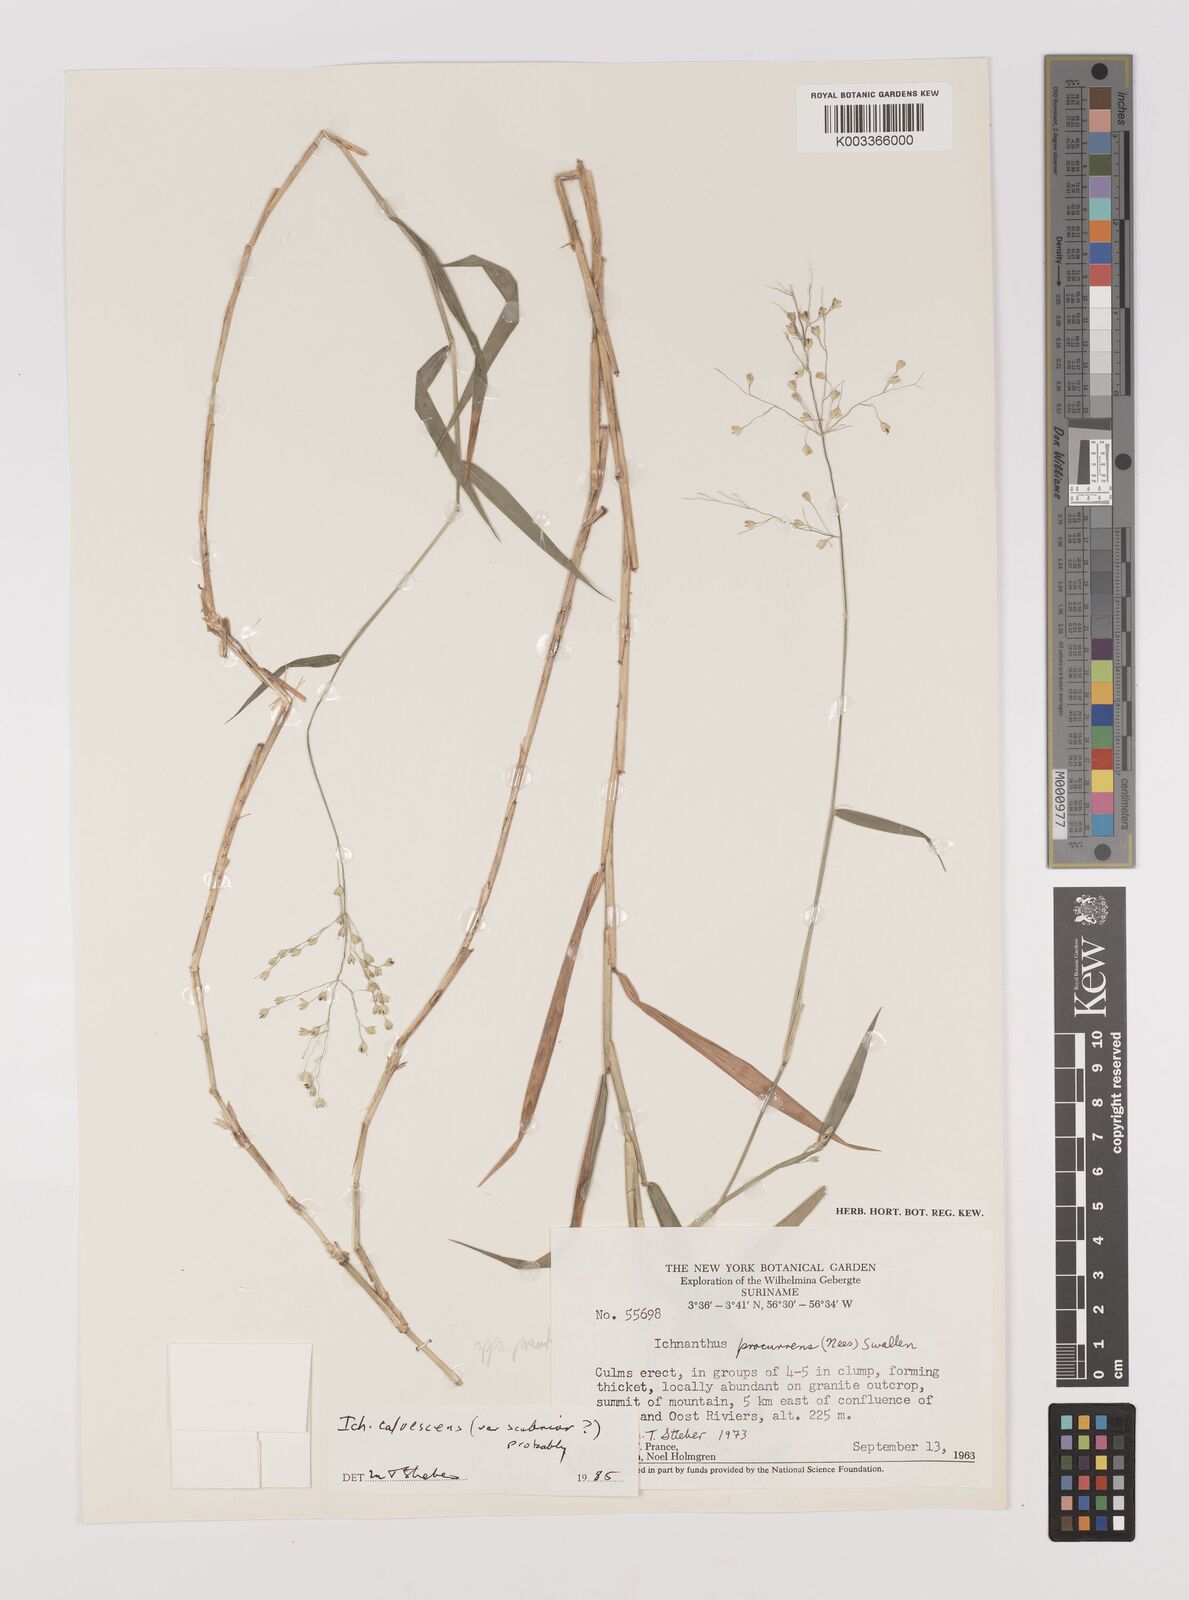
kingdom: Plantae
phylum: Tracheophyta
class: Liliopsida
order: Poales
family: Poaceae
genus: Ichnanthus
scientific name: Ichnanthus calvescens
